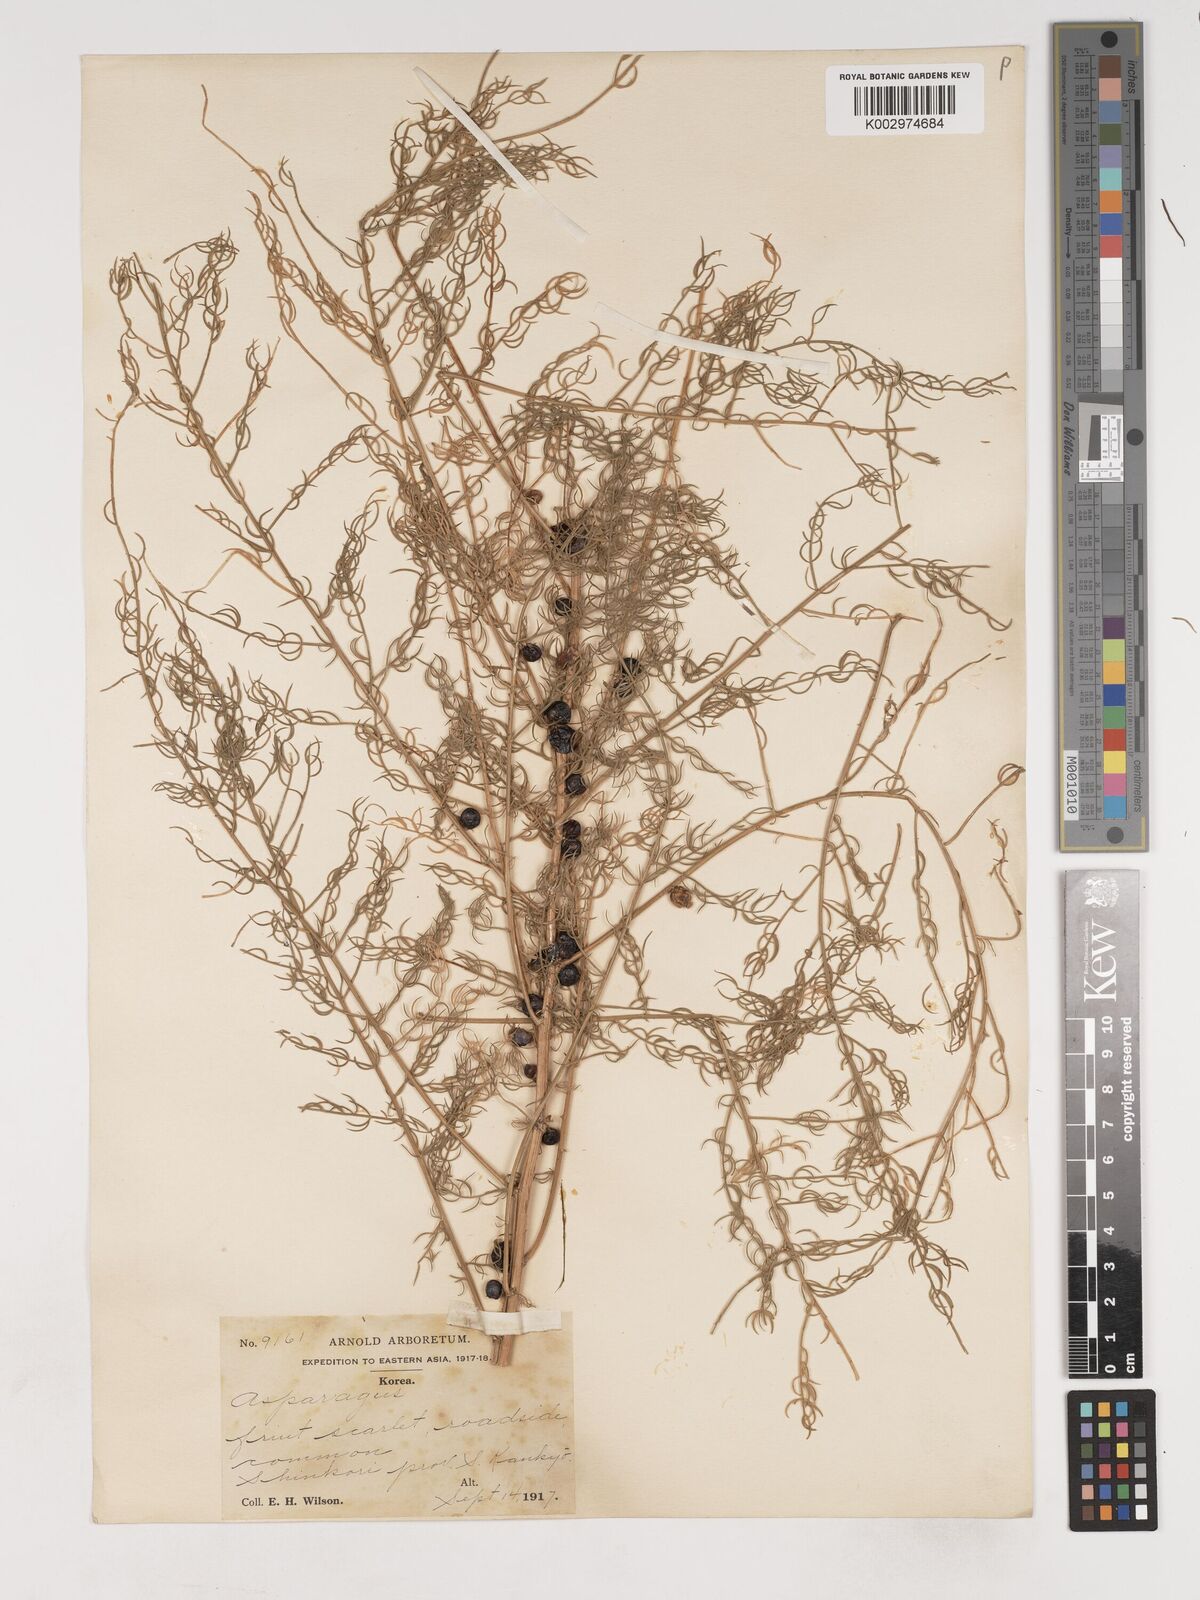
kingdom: Plantae
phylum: Tracheophyta
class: Liliopsida
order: Asparagales
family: Asparagaceae
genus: Asparagus
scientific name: Asparagus schoberioides
